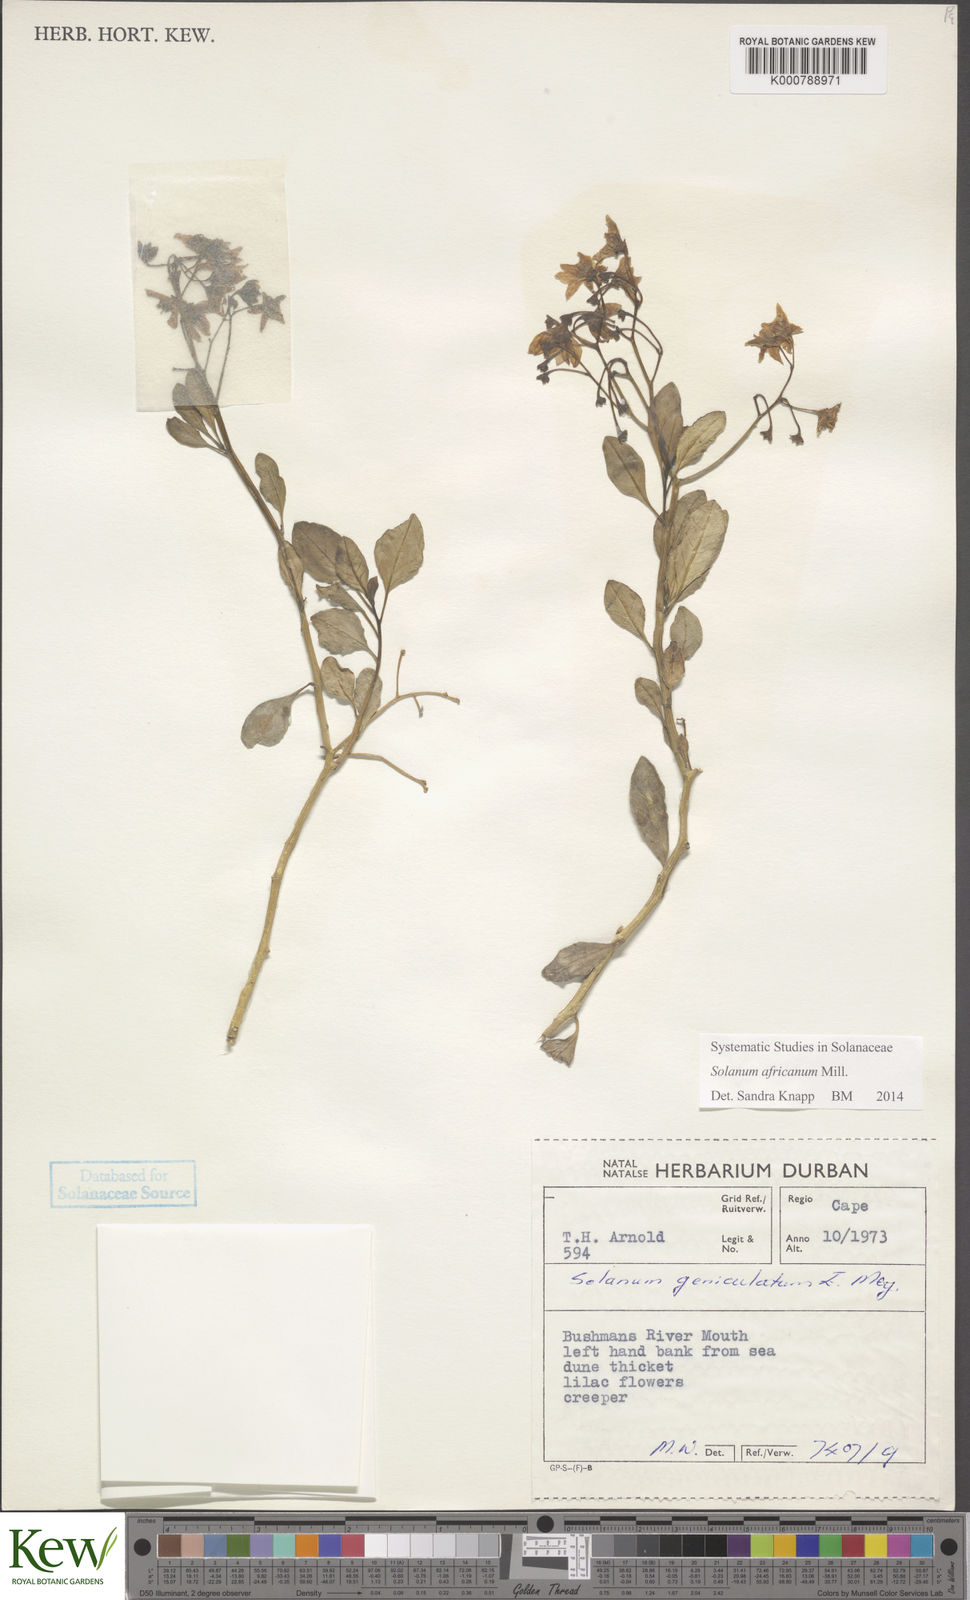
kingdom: Plantae
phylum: Tracheophyta
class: Magnoliopsida
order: Solanales
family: Solanaceae
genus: Solanum
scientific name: Solanum africanum
